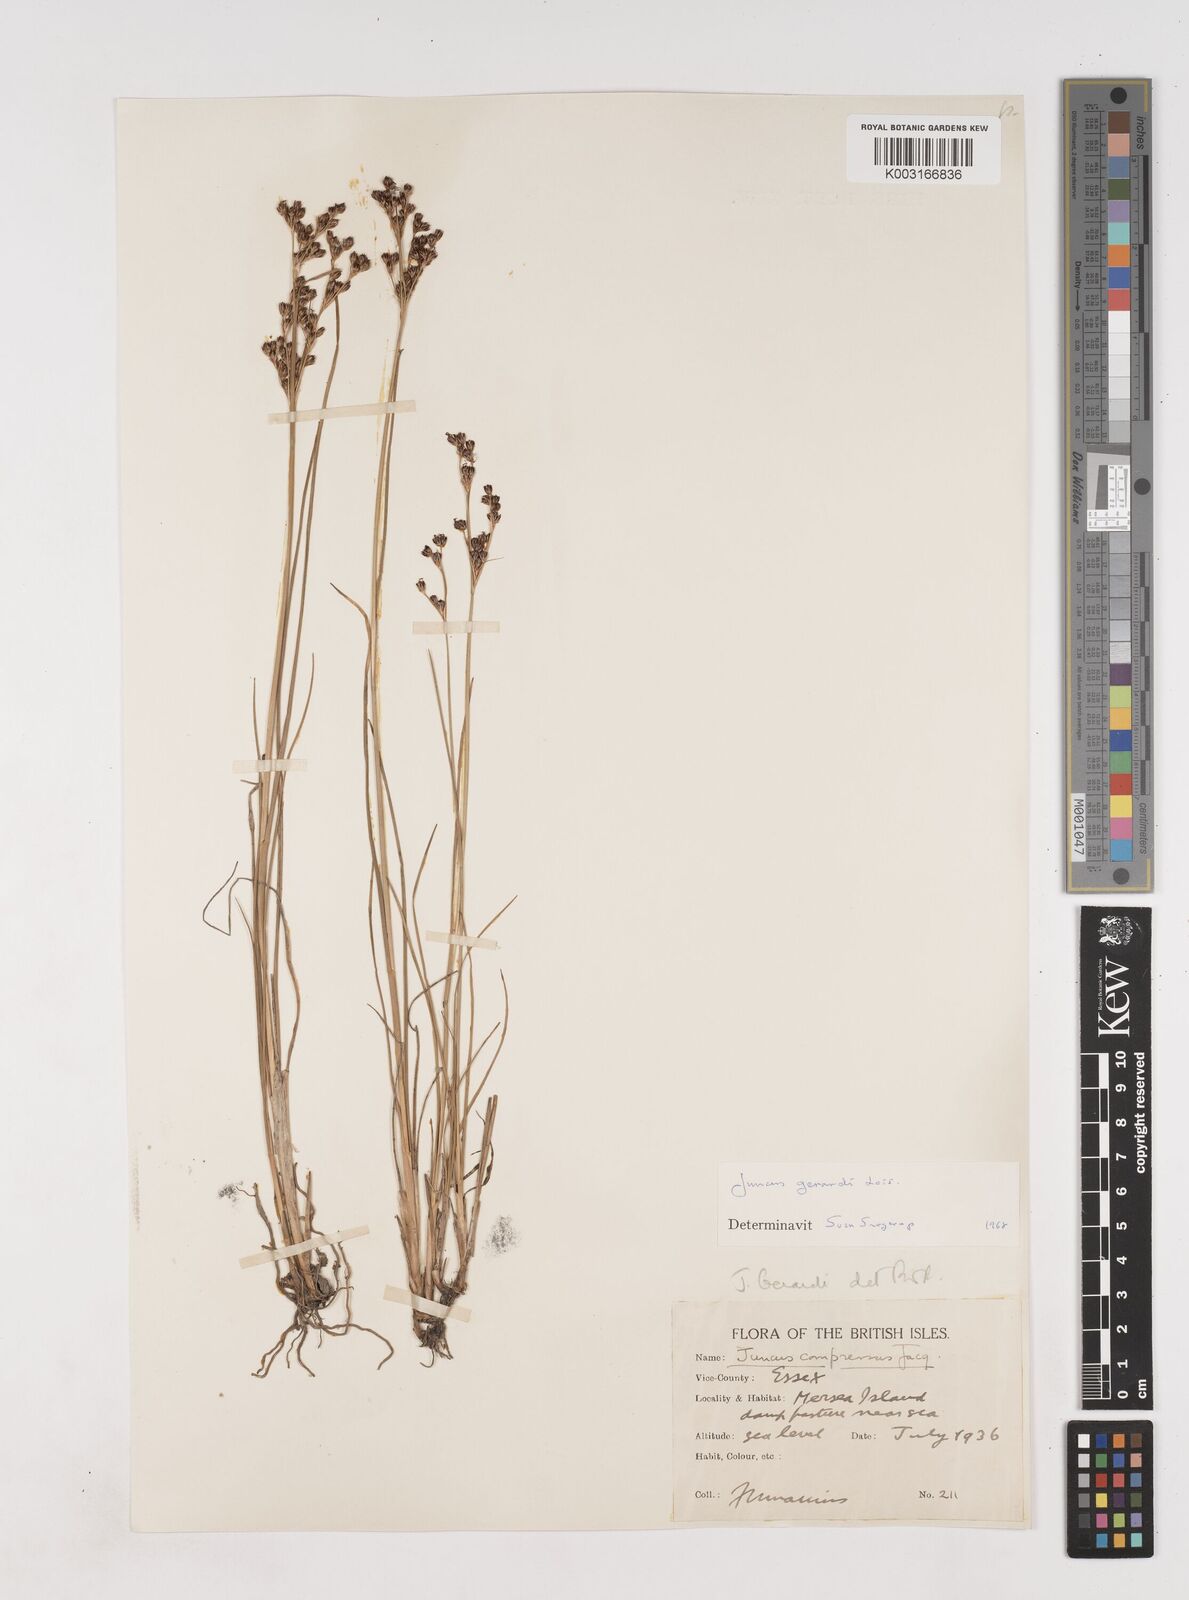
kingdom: Plantae
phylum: Tracheophyta
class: Liliopsida
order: Poales
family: Juncaceae
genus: Juncus
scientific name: Juncus gerardi
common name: Saltmarsh rush
